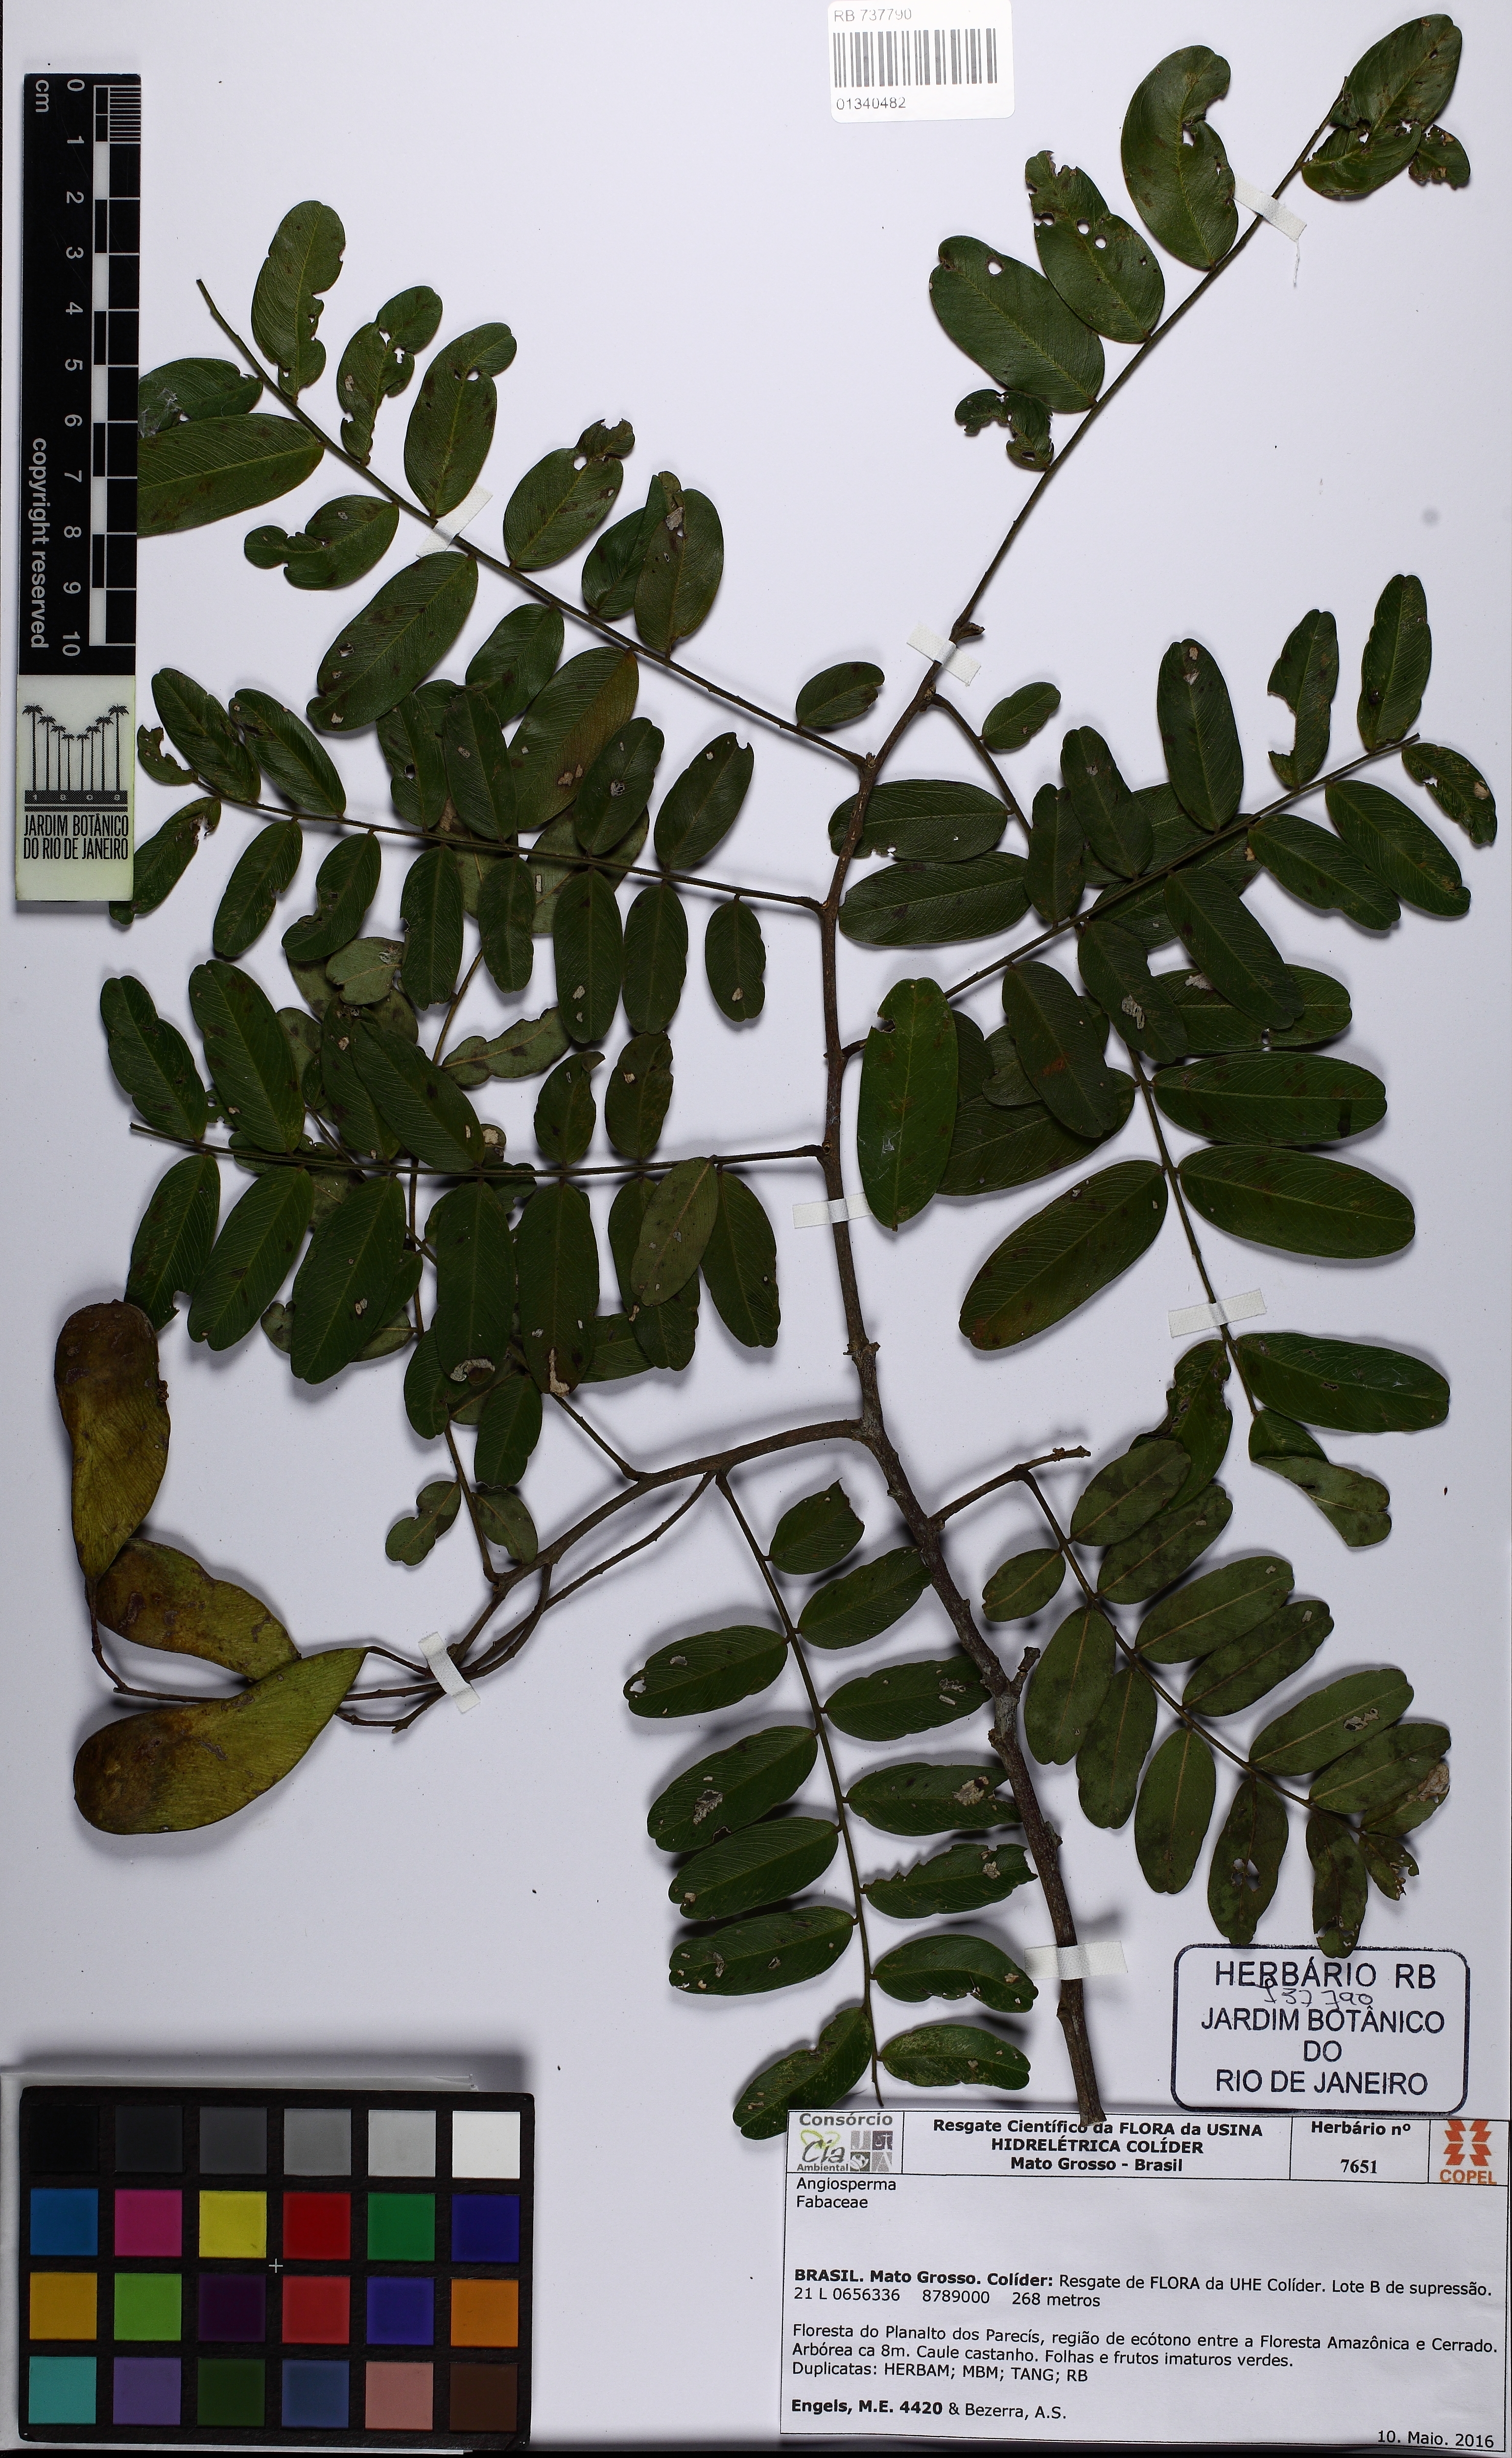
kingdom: Plantae
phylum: Tracheophyta
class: Magnoliopsida
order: Fabales
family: Fabaceae
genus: Platypodium
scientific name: Platypodium elegans
